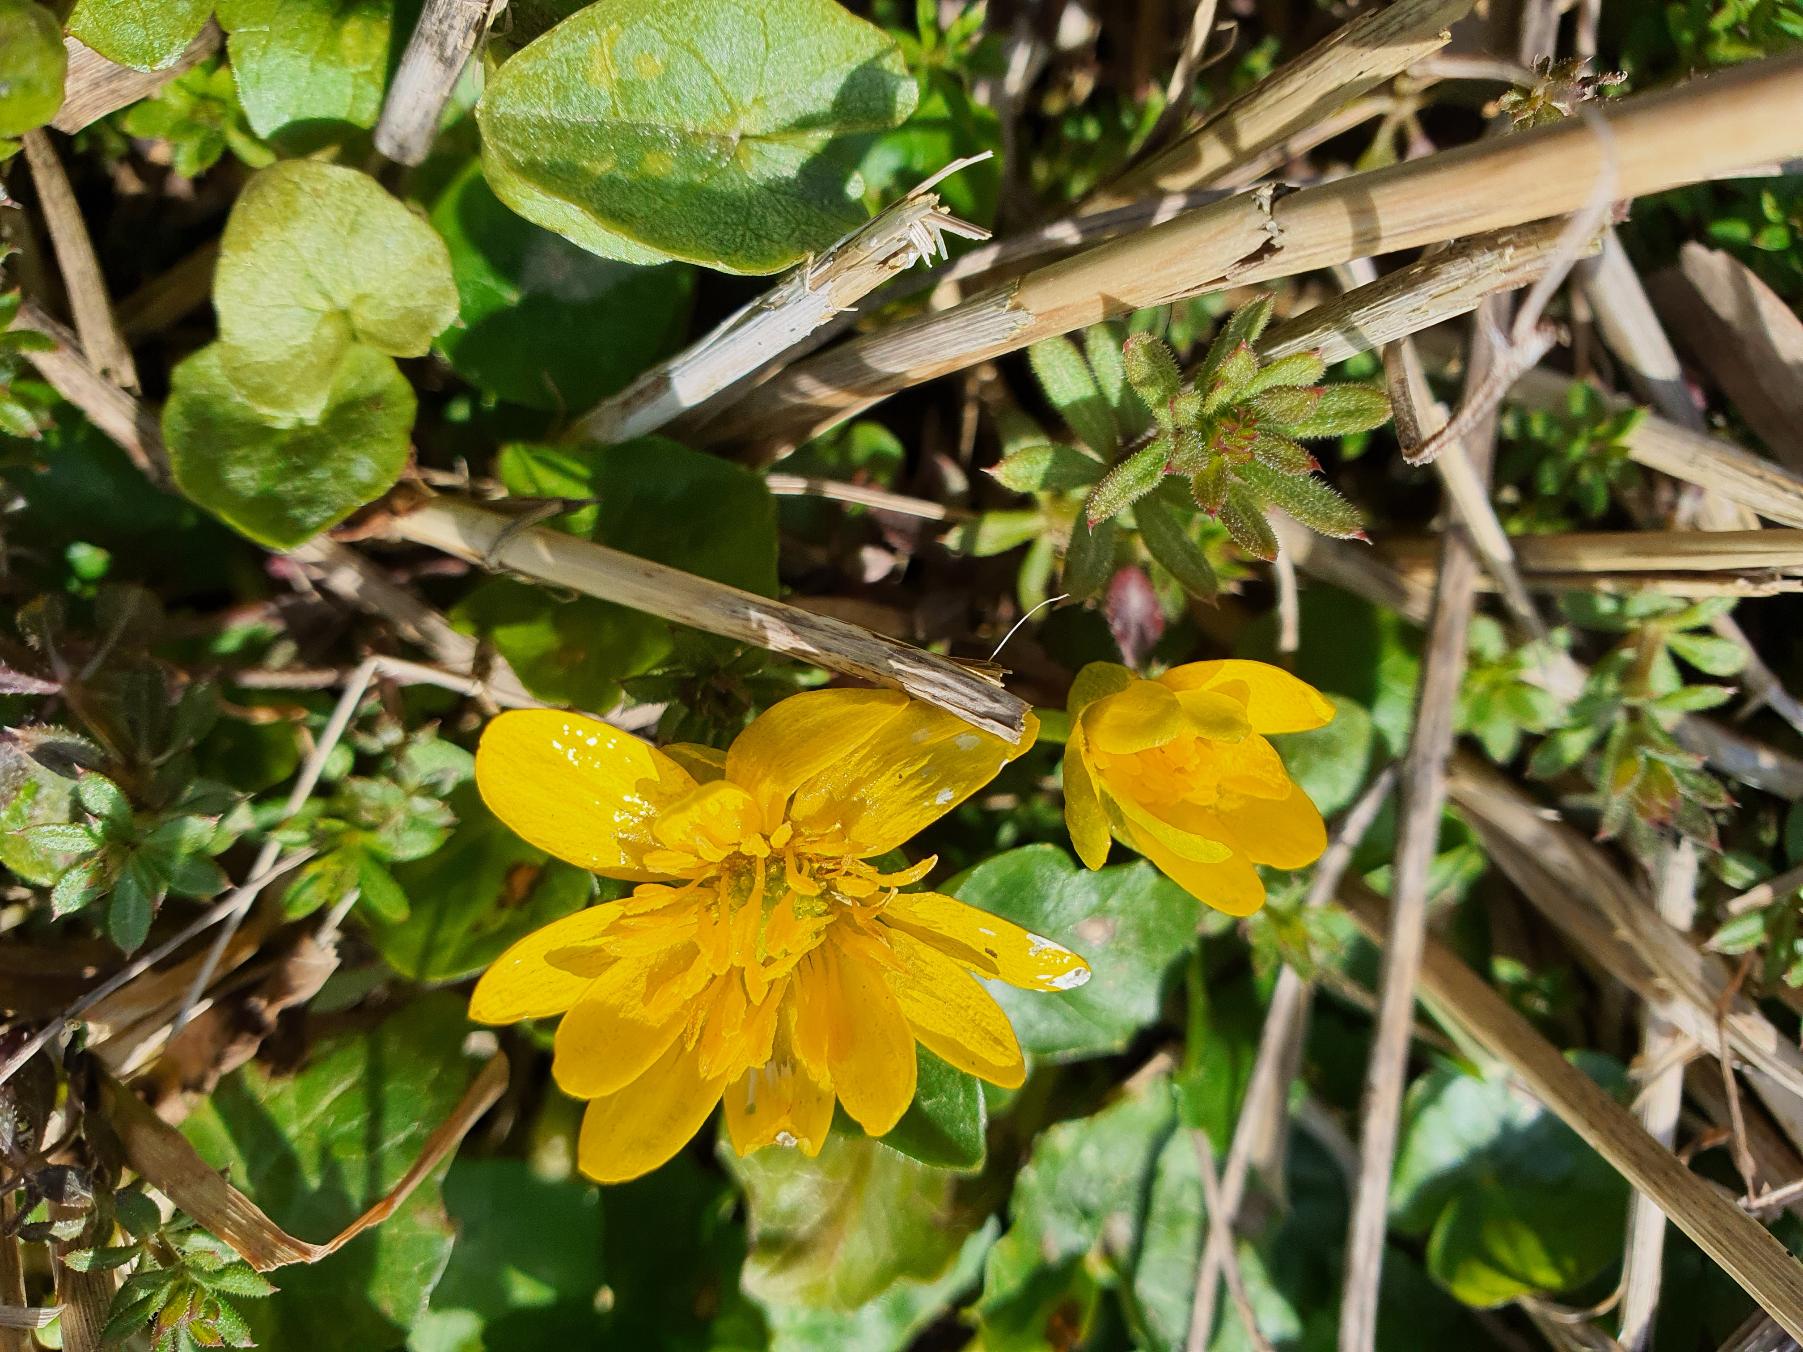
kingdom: Plantae
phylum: Tracheophyta
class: Magnoliopsida
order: Ranunculales
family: Ranunculaceae
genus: Ficaria
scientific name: Ficaria verna
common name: Vorterod
